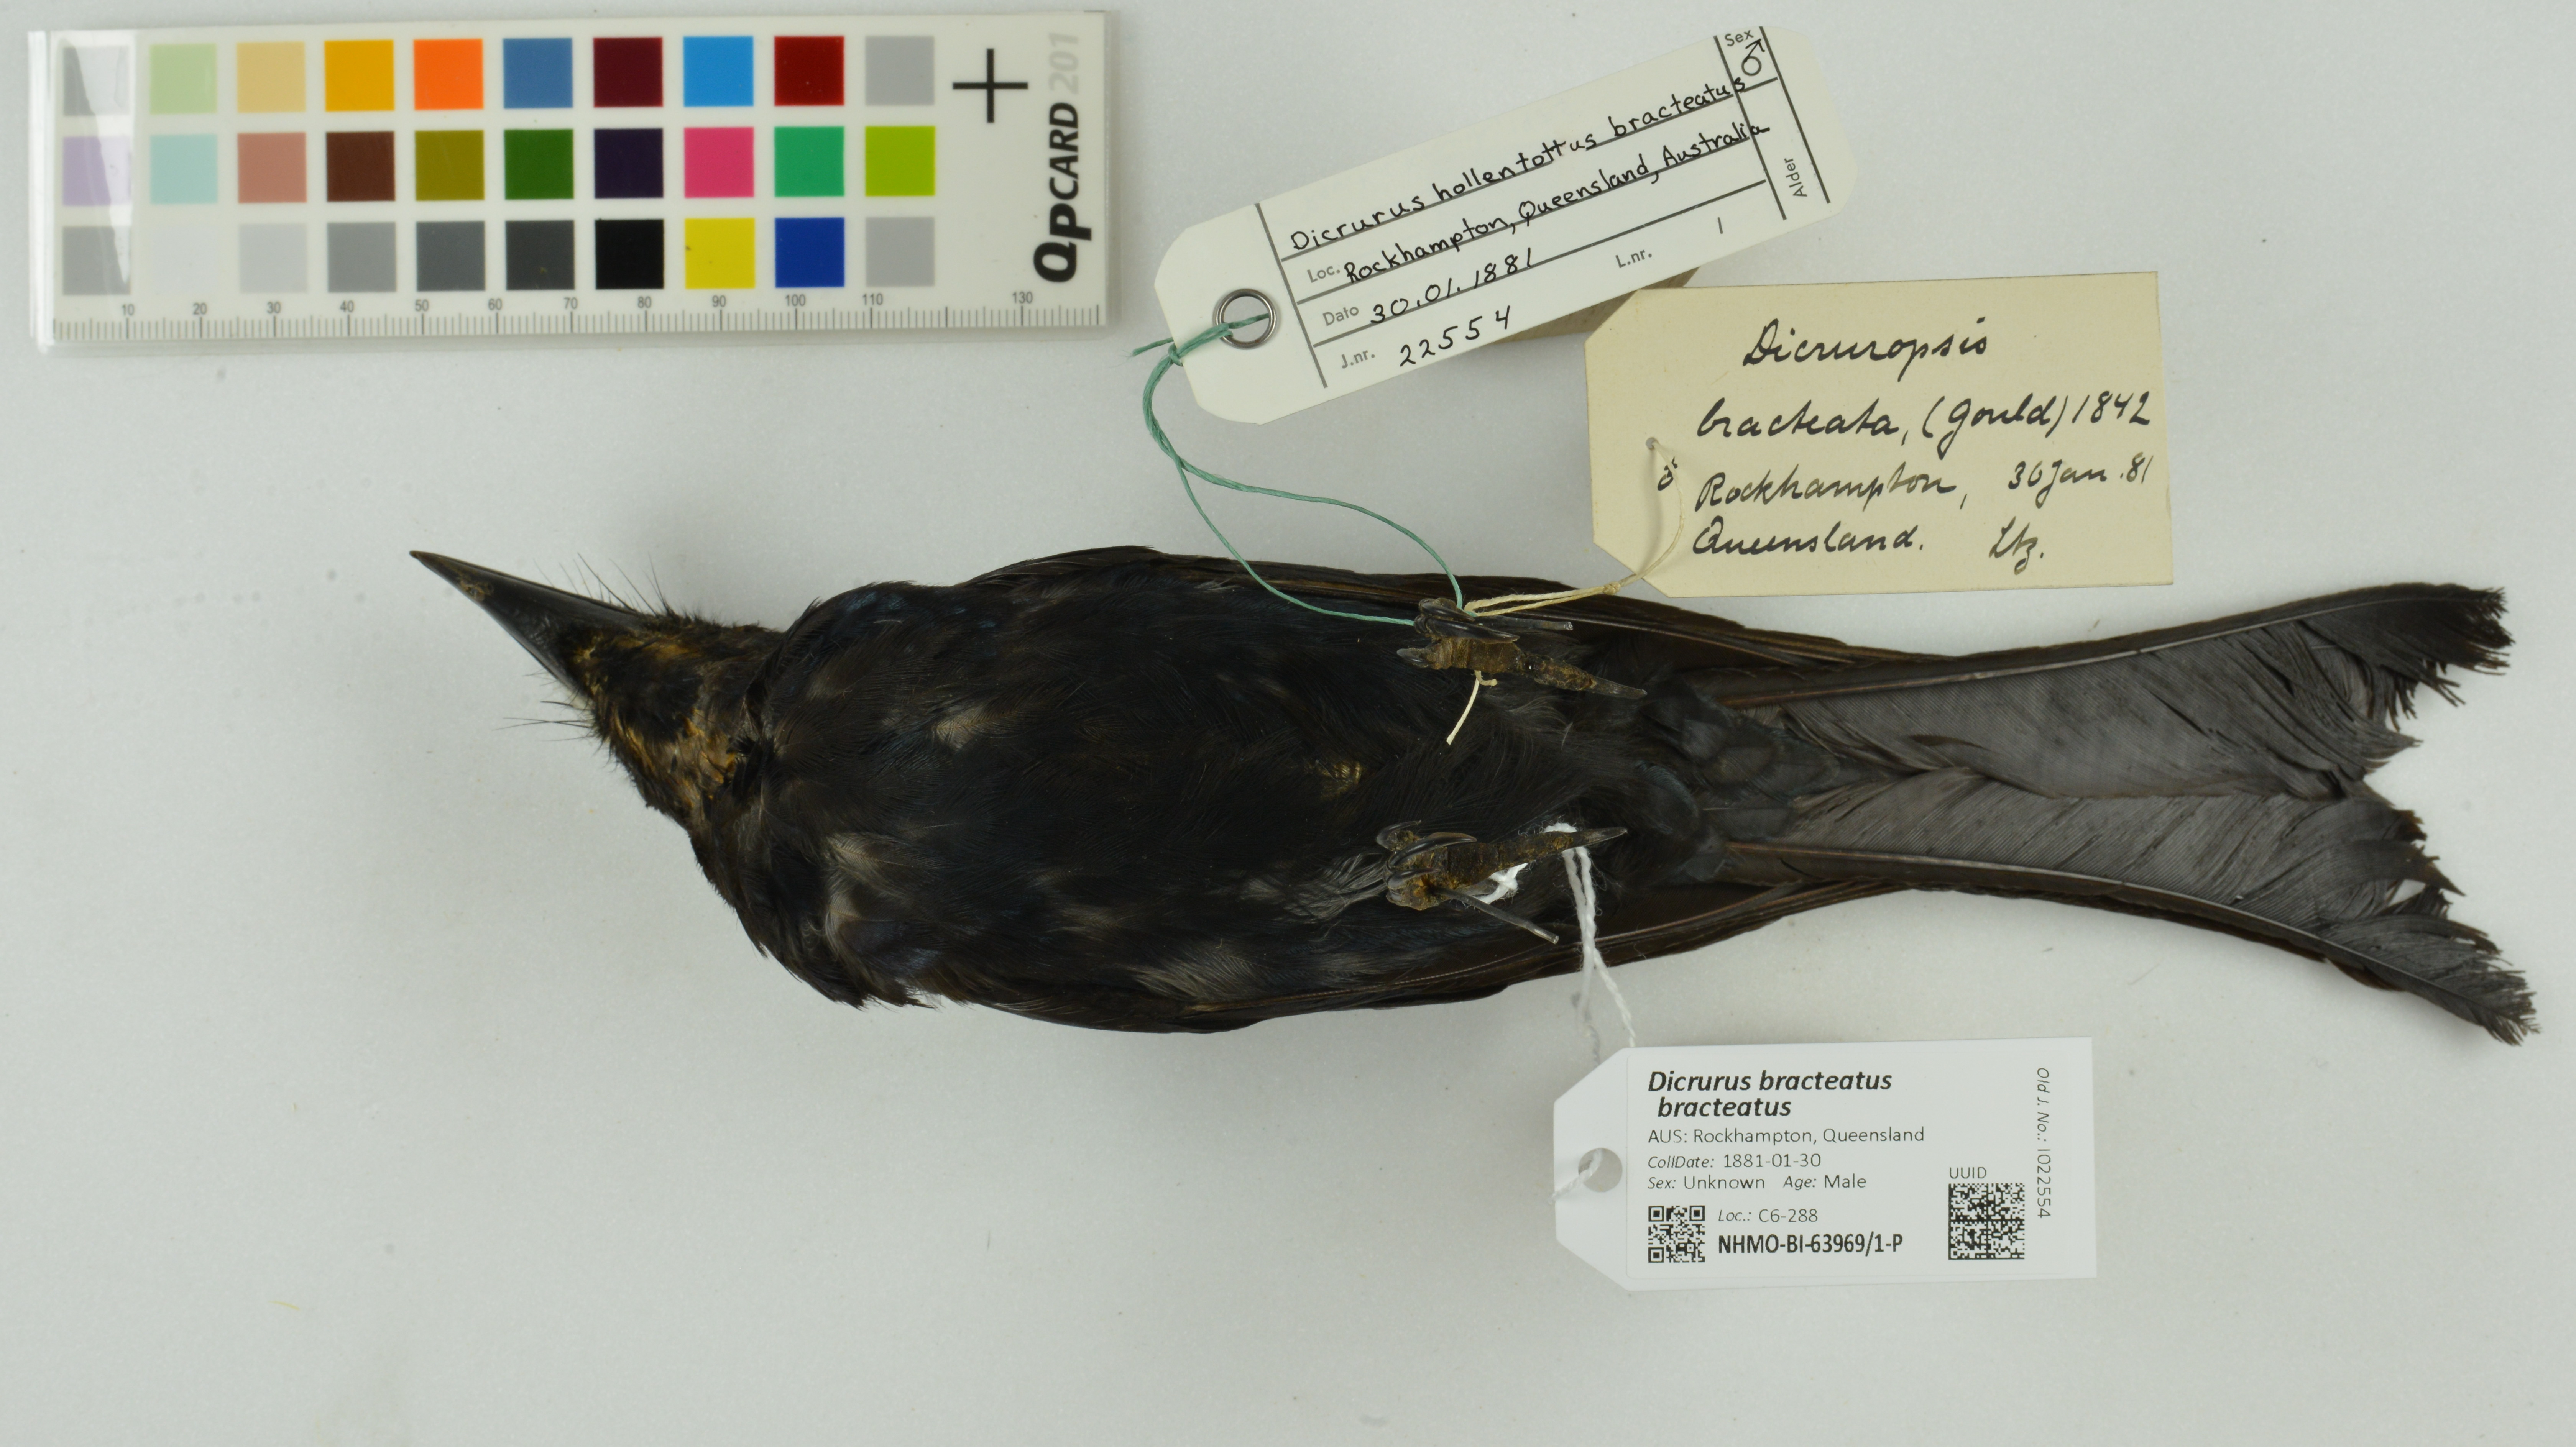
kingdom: Animalia
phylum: Chordata
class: Aves
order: Passeriformes
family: Dicruridae
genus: Dicrurus
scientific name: Dicrurus bracteatus
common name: Spangled drongo
